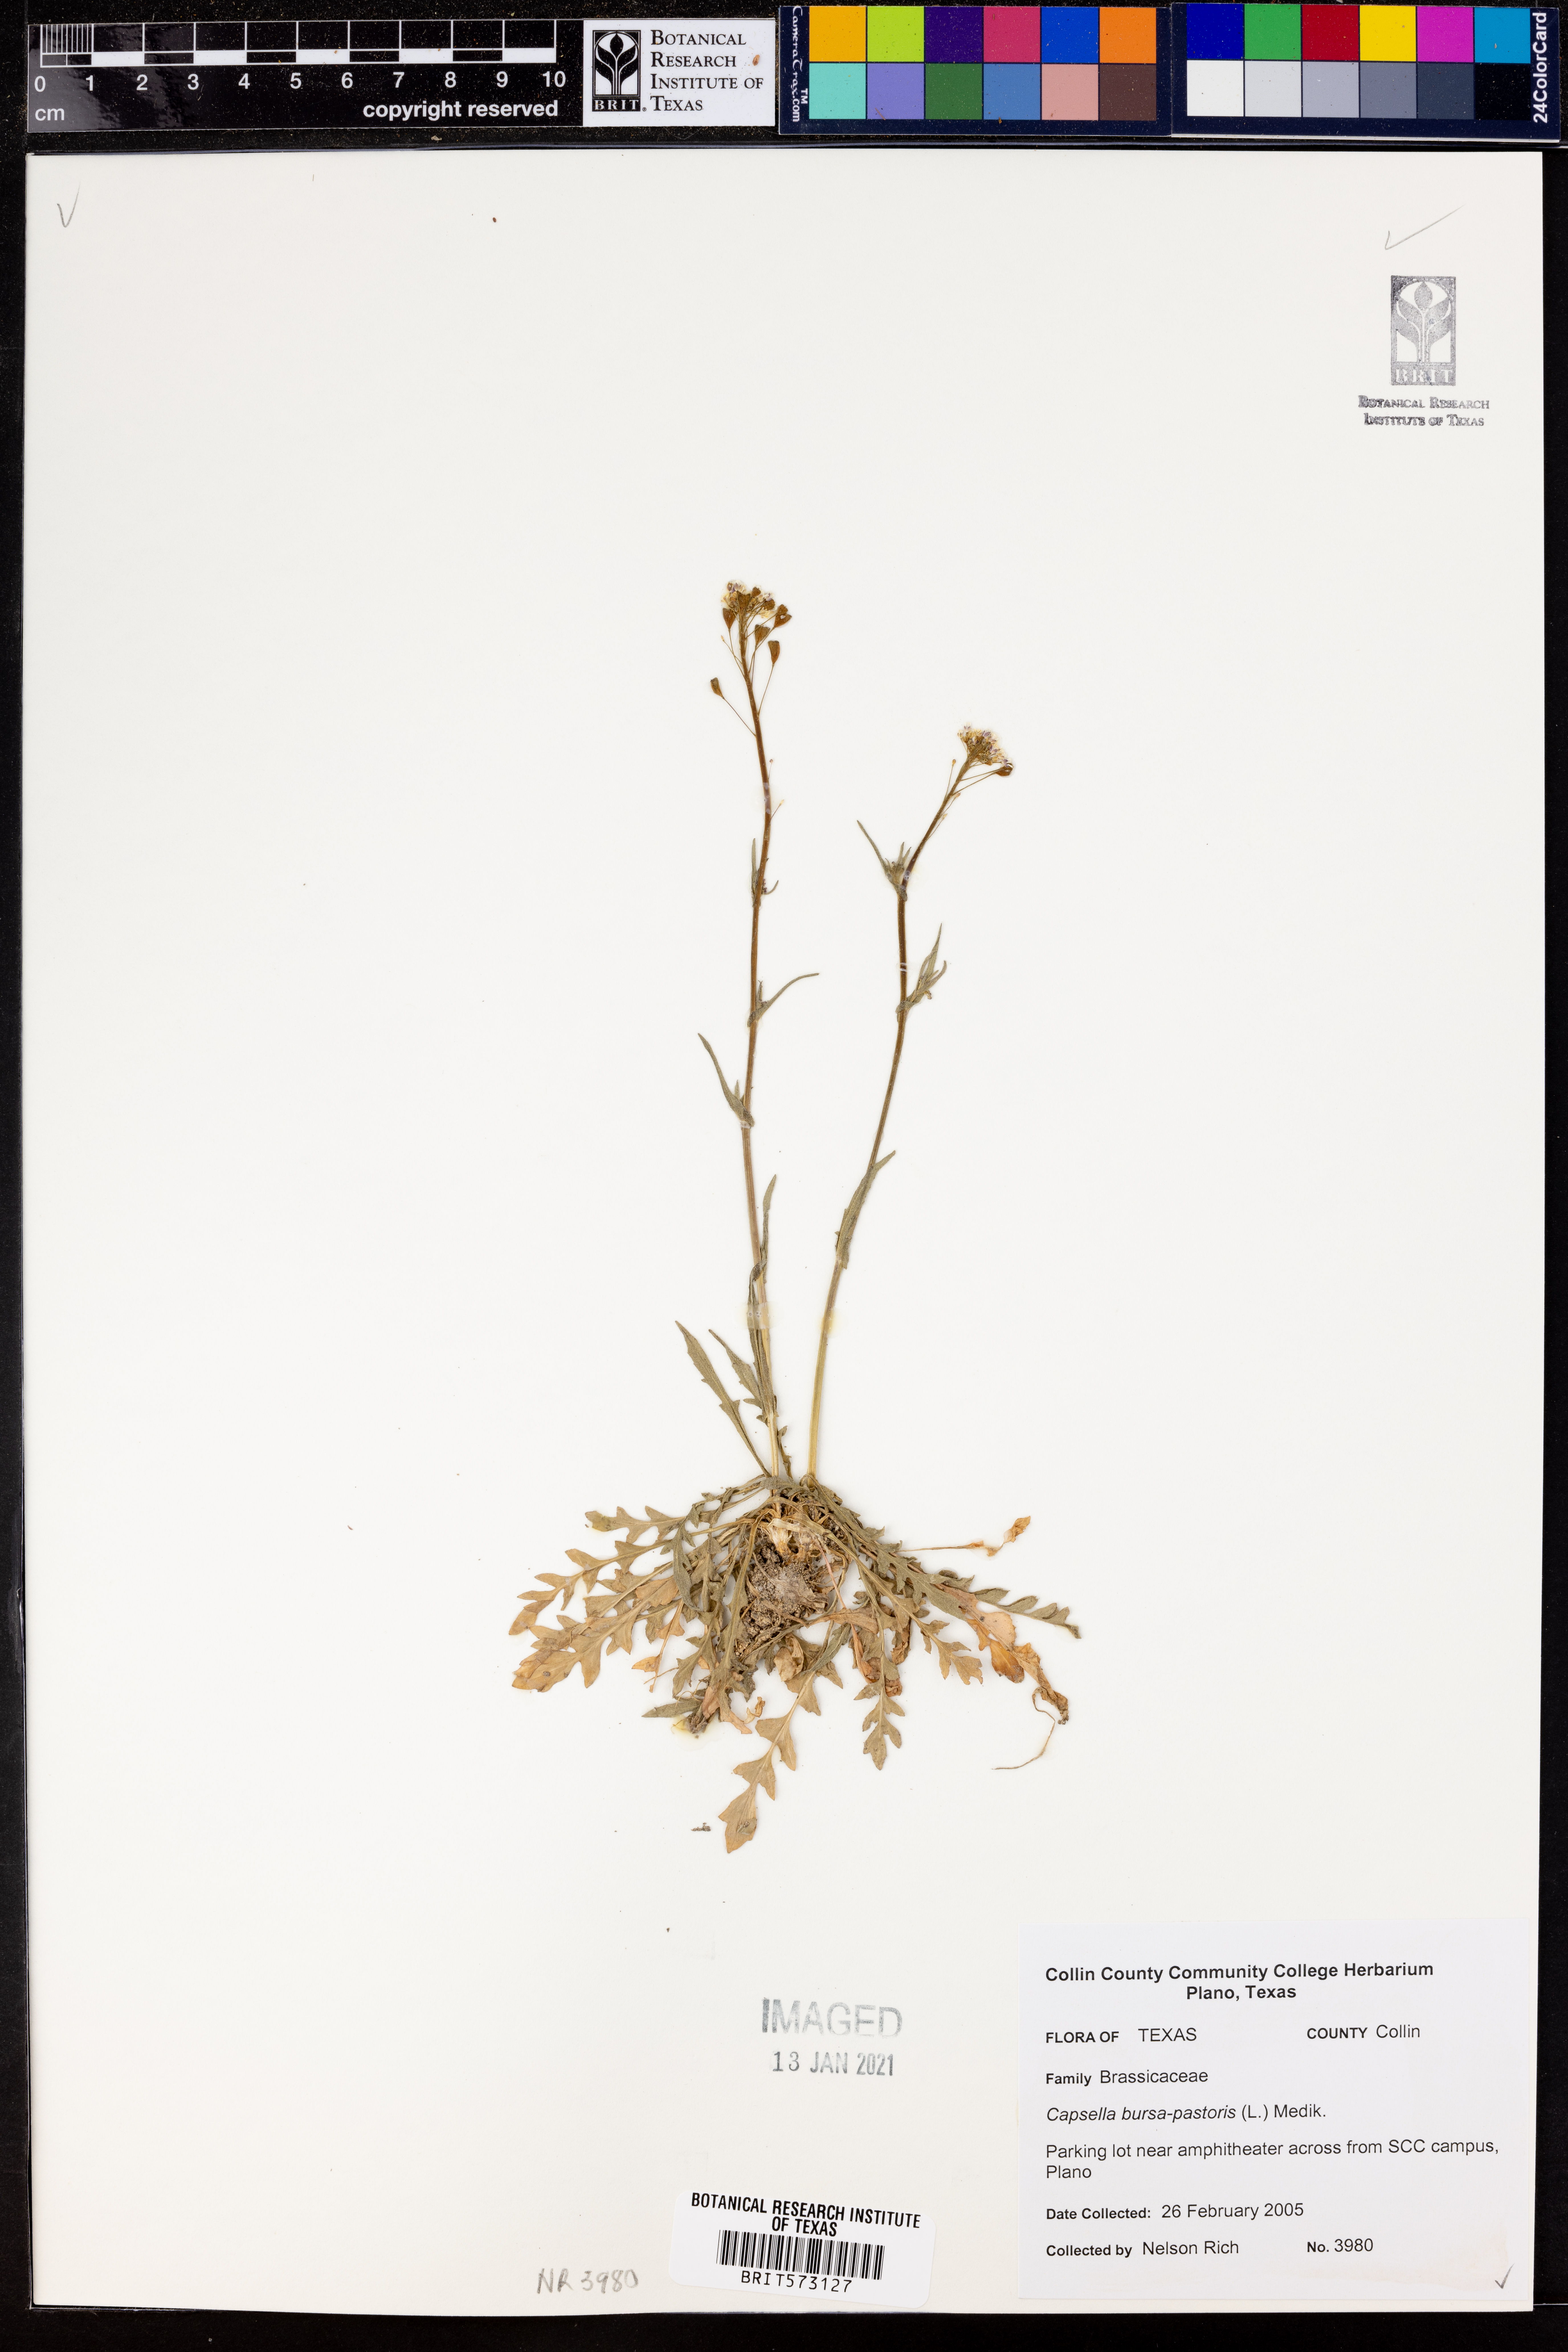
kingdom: Plantae
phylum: Tracheophyta
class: Magnoliopsida
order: Brassicales
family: Brassicaceae
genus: Capsella
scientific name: Capsella bursa-pastoris
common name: Shepherd's purse
